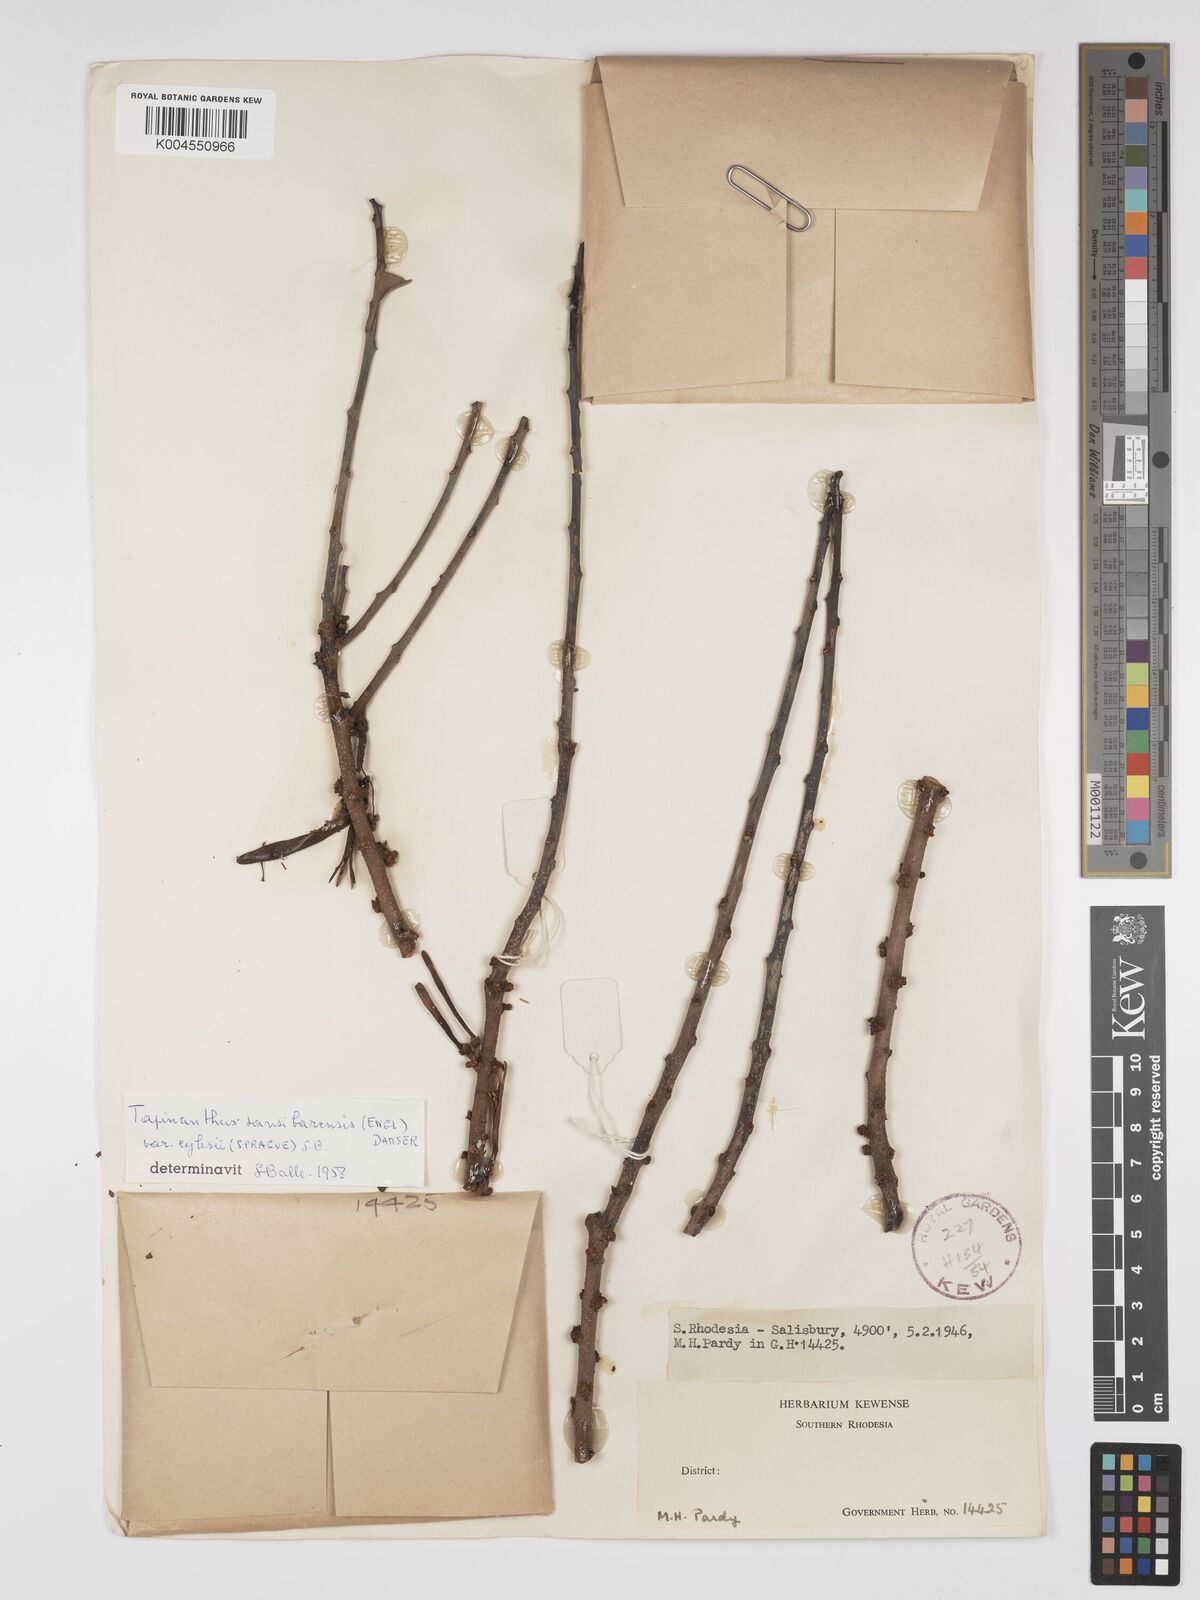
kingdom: Plantae
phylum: Tracheophyta
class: Magnoliopsida
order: Santalales
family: Loranthaceae
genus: Agelanthus
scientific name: Agelanthus fuellebornii
